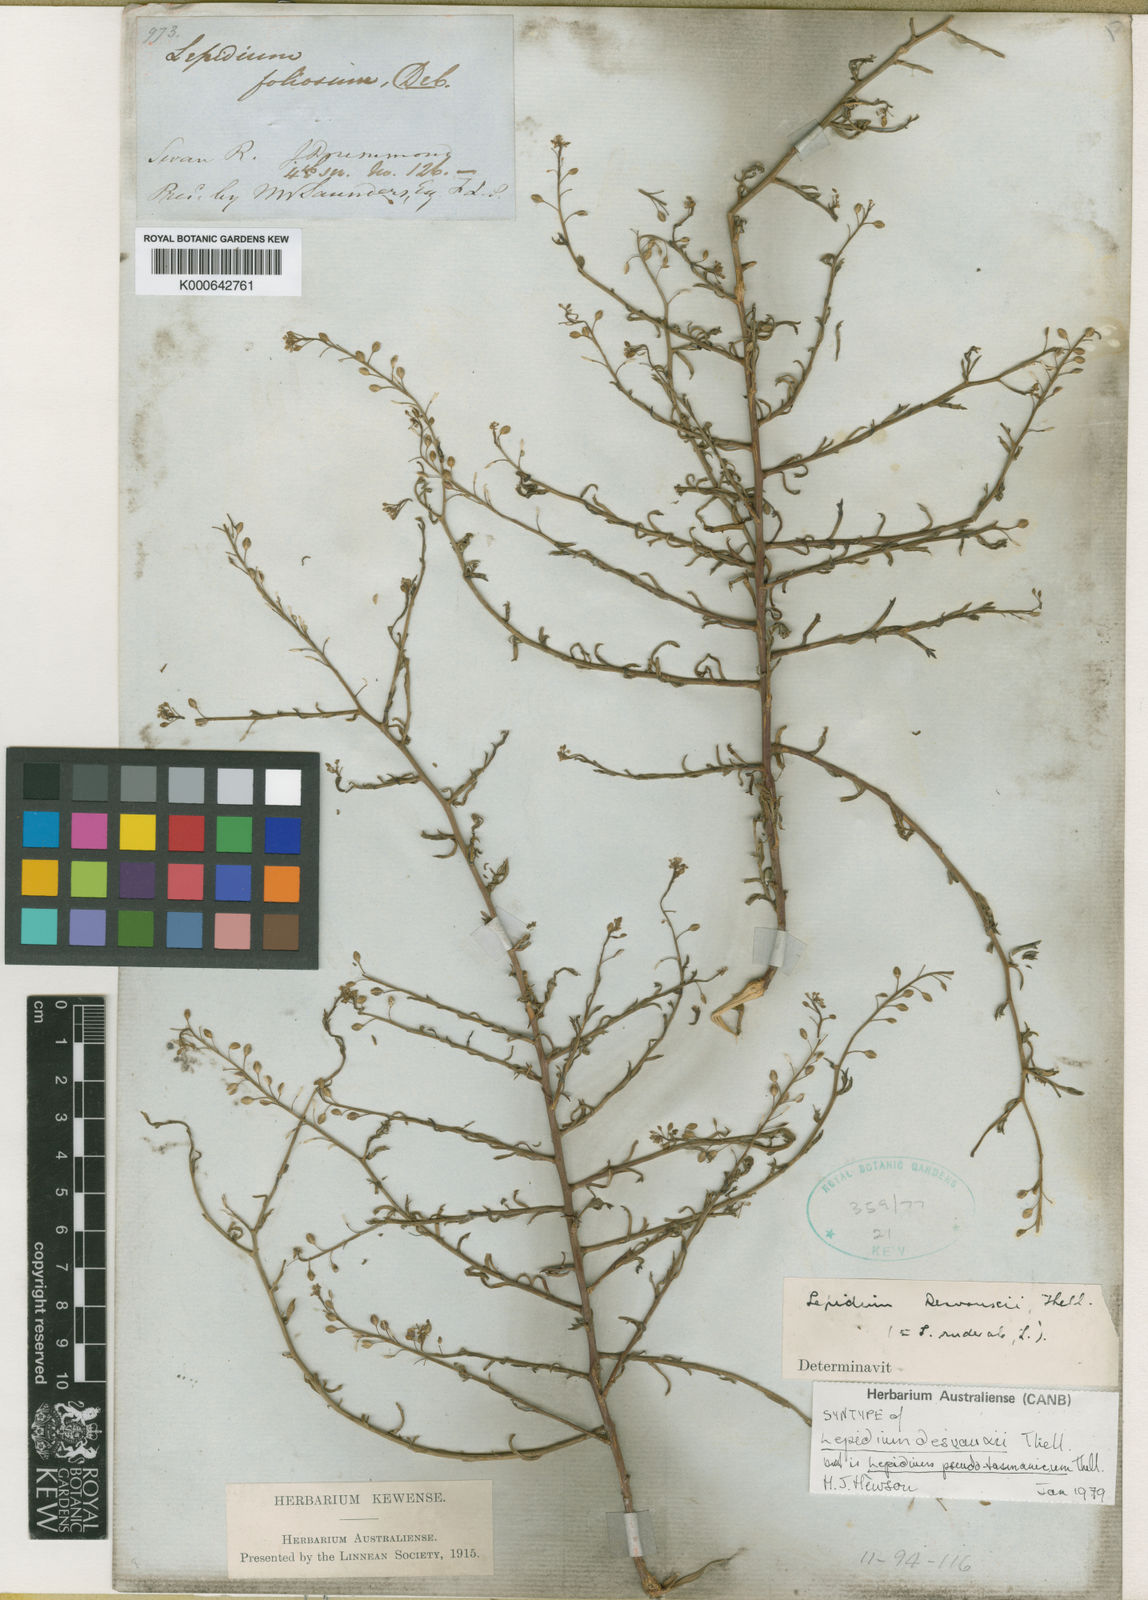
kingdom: Plantae
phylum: Tracheophyta
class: Magnoliopsida
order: Brassicales
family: Brassicaceae
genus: Lepidium
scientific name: Lepidium pseudotasmanicum
